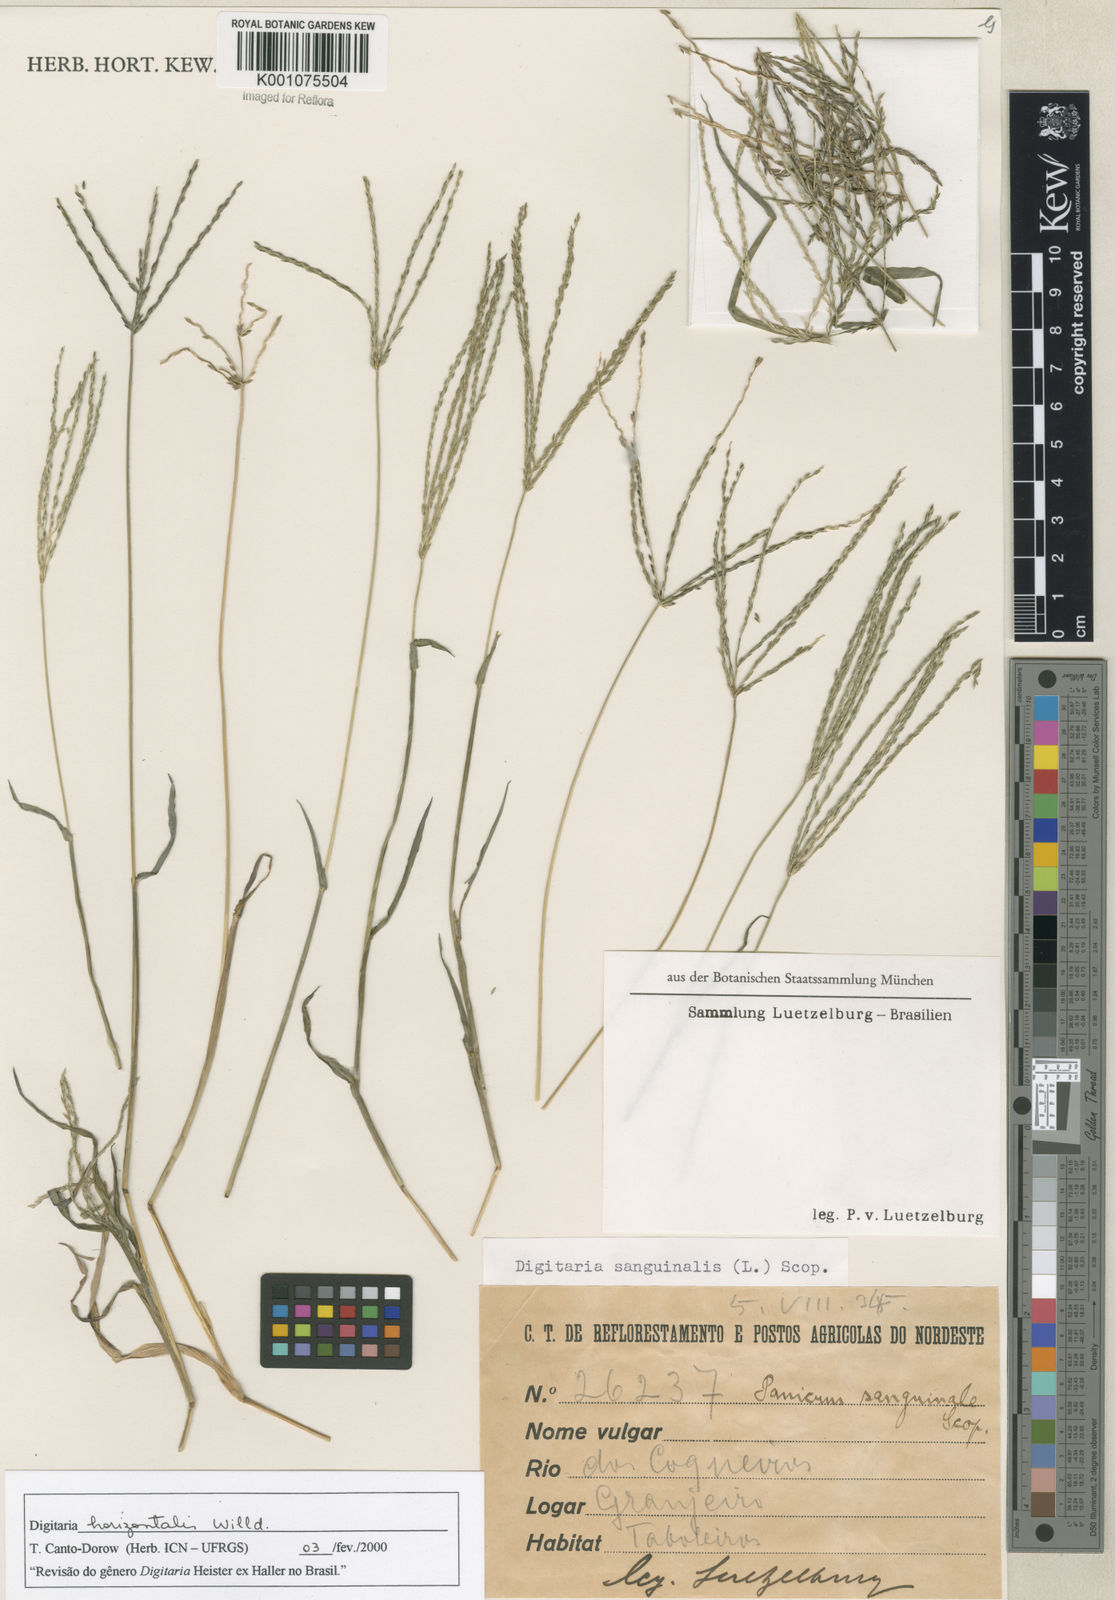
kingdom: Plantae
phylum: Tracheophyta
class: Liliopsida
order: Poales
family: Poaceae
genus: Digitaria
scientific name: Digitaria horizontalis
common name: Jamaican crabgrass
